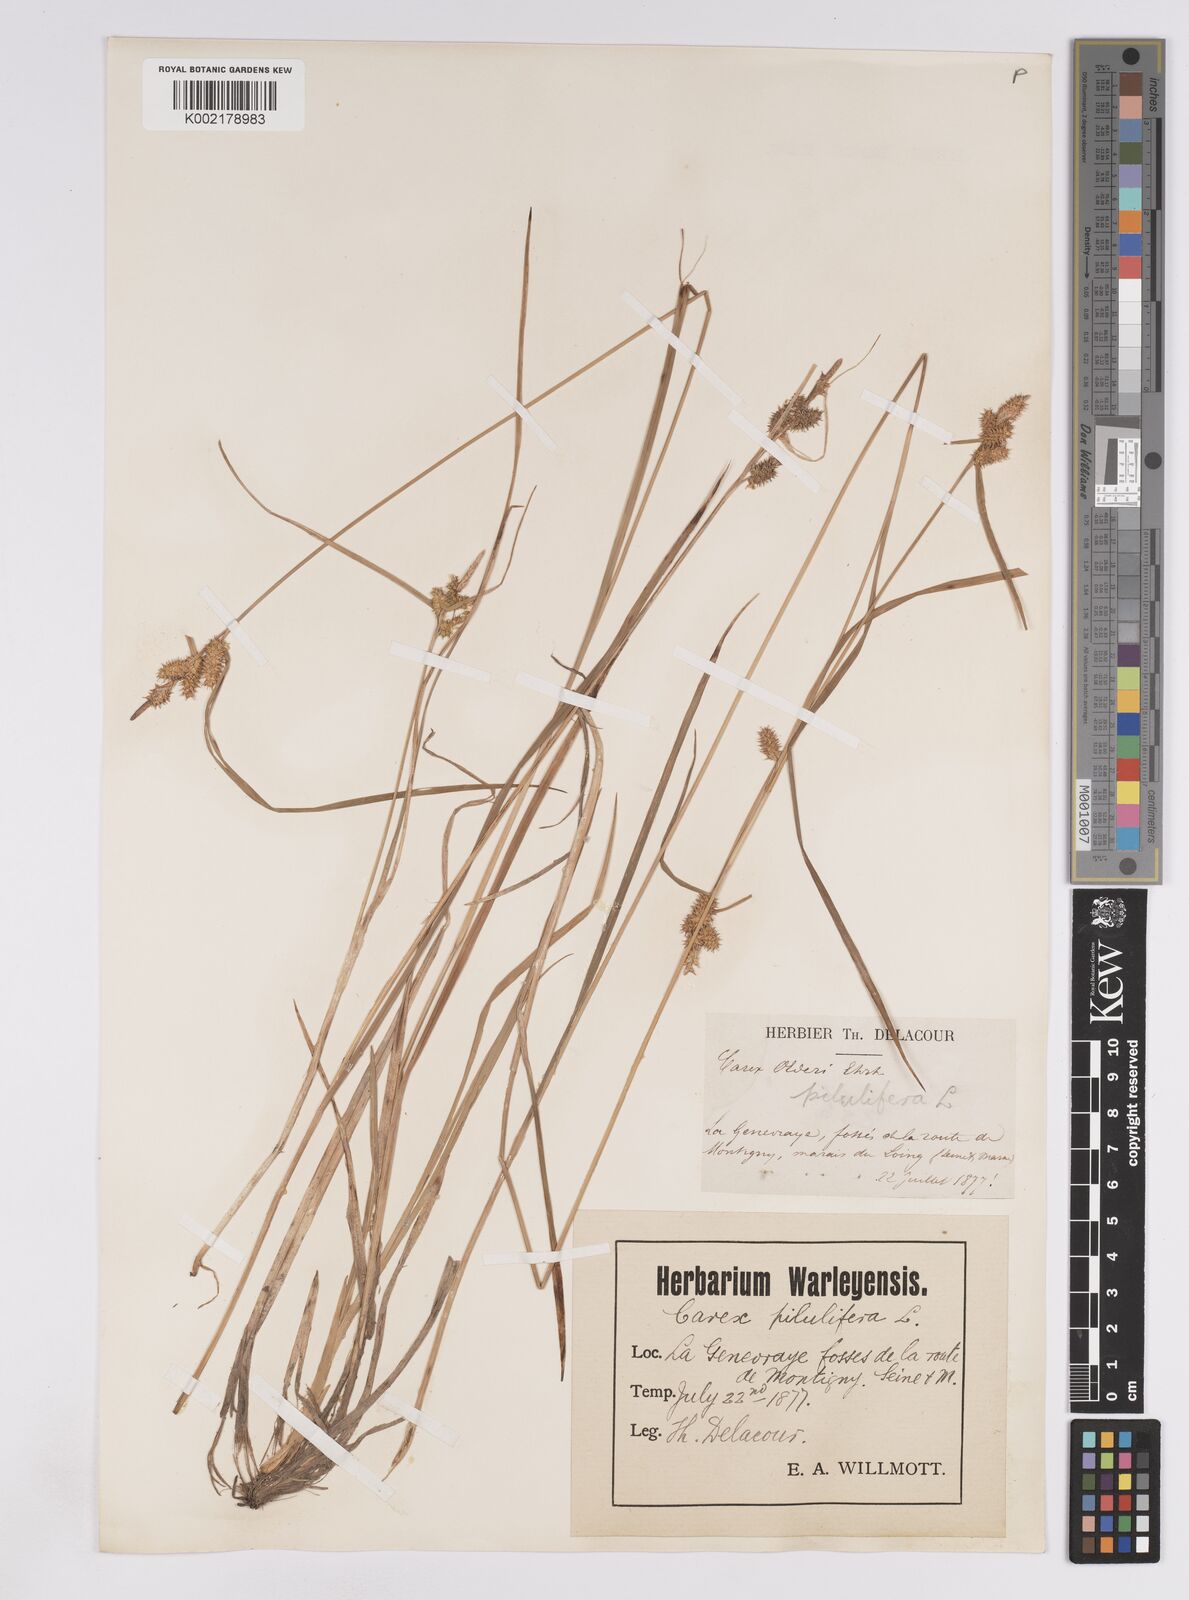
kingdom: Plantae
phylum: Tracheophyta
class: Liliopsida
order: Poales
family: Cyperaceae
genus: Carex
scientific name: Carex lepidocarpa
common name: Long-stalked yellow-sedge
